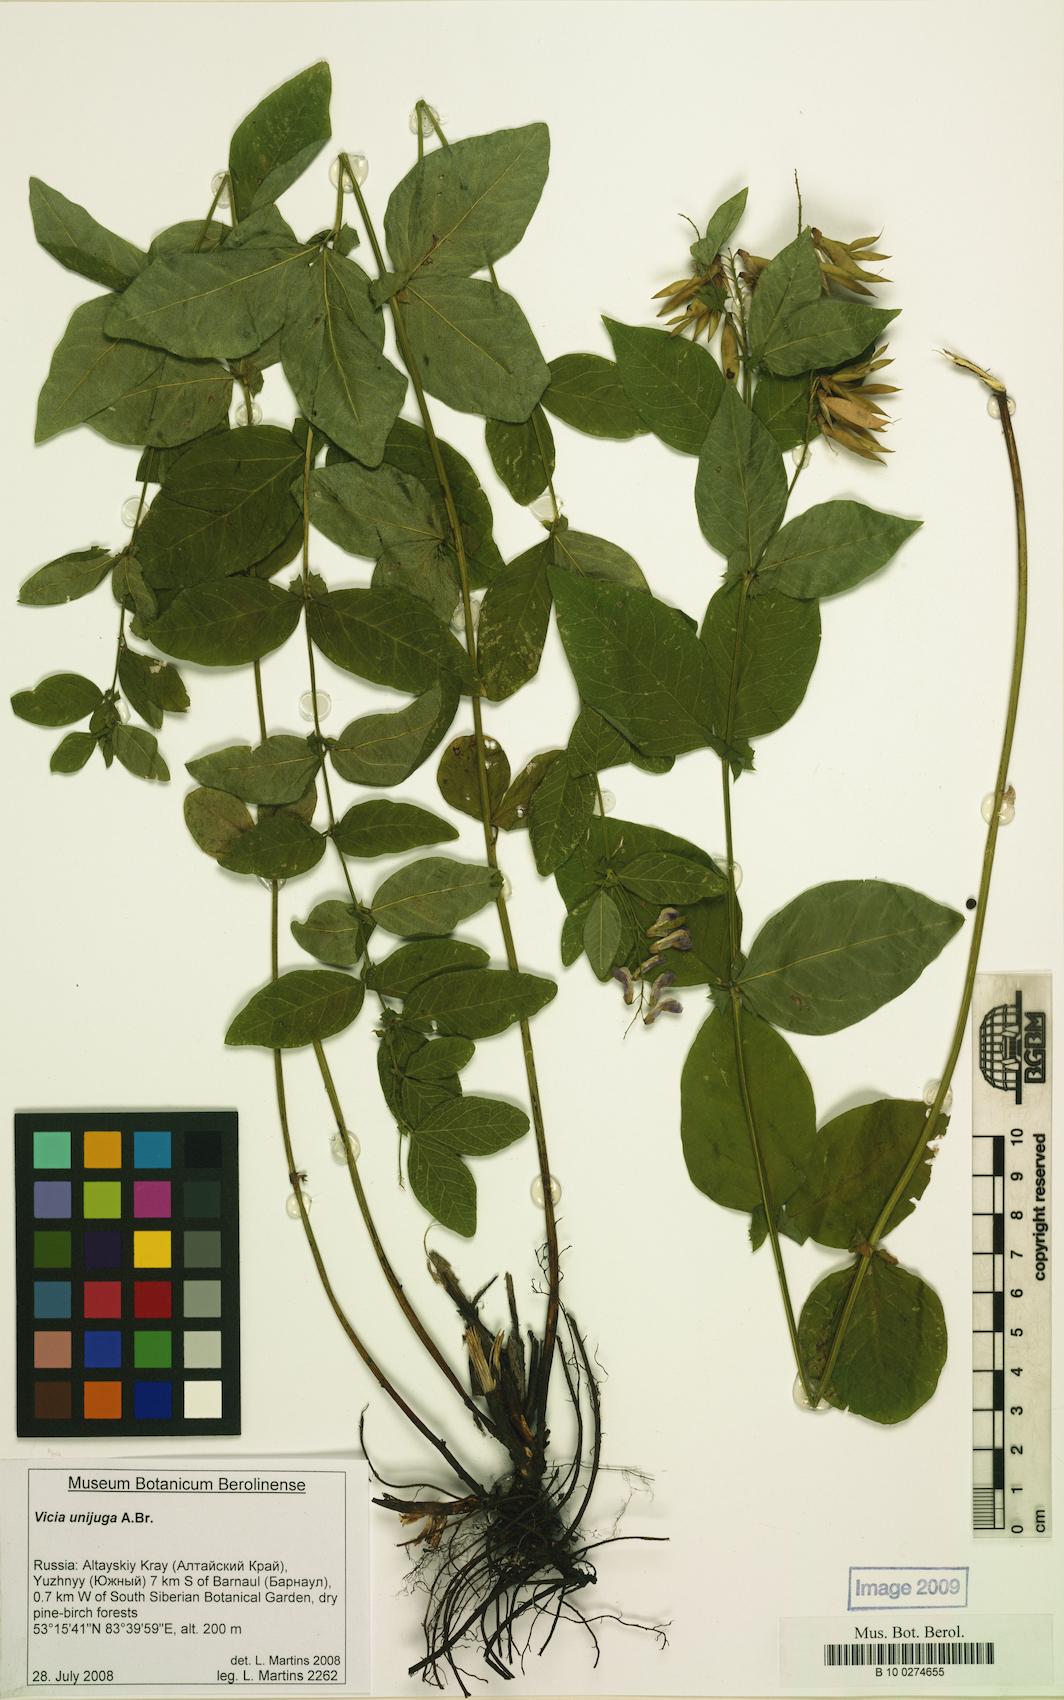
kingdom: Plantae
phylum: Tracheophyta
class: Magnoliopsida
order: Fabales
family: Fabaceae
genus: Vicia
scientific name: Vicia unijuga
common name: Two-leaf vetch
